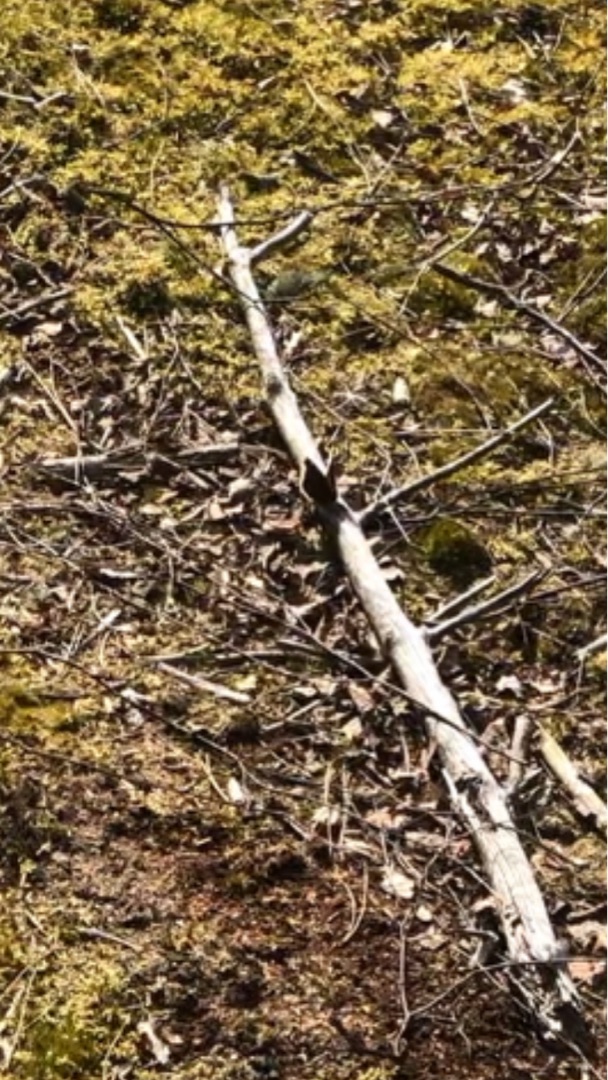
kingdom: Animalia
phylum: Arthropoda
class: Insecta
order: Lepidoptera
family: Nymphalidae
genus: Nymphalis
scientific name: Nymphalis antiopa
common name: Sørgekåbe
